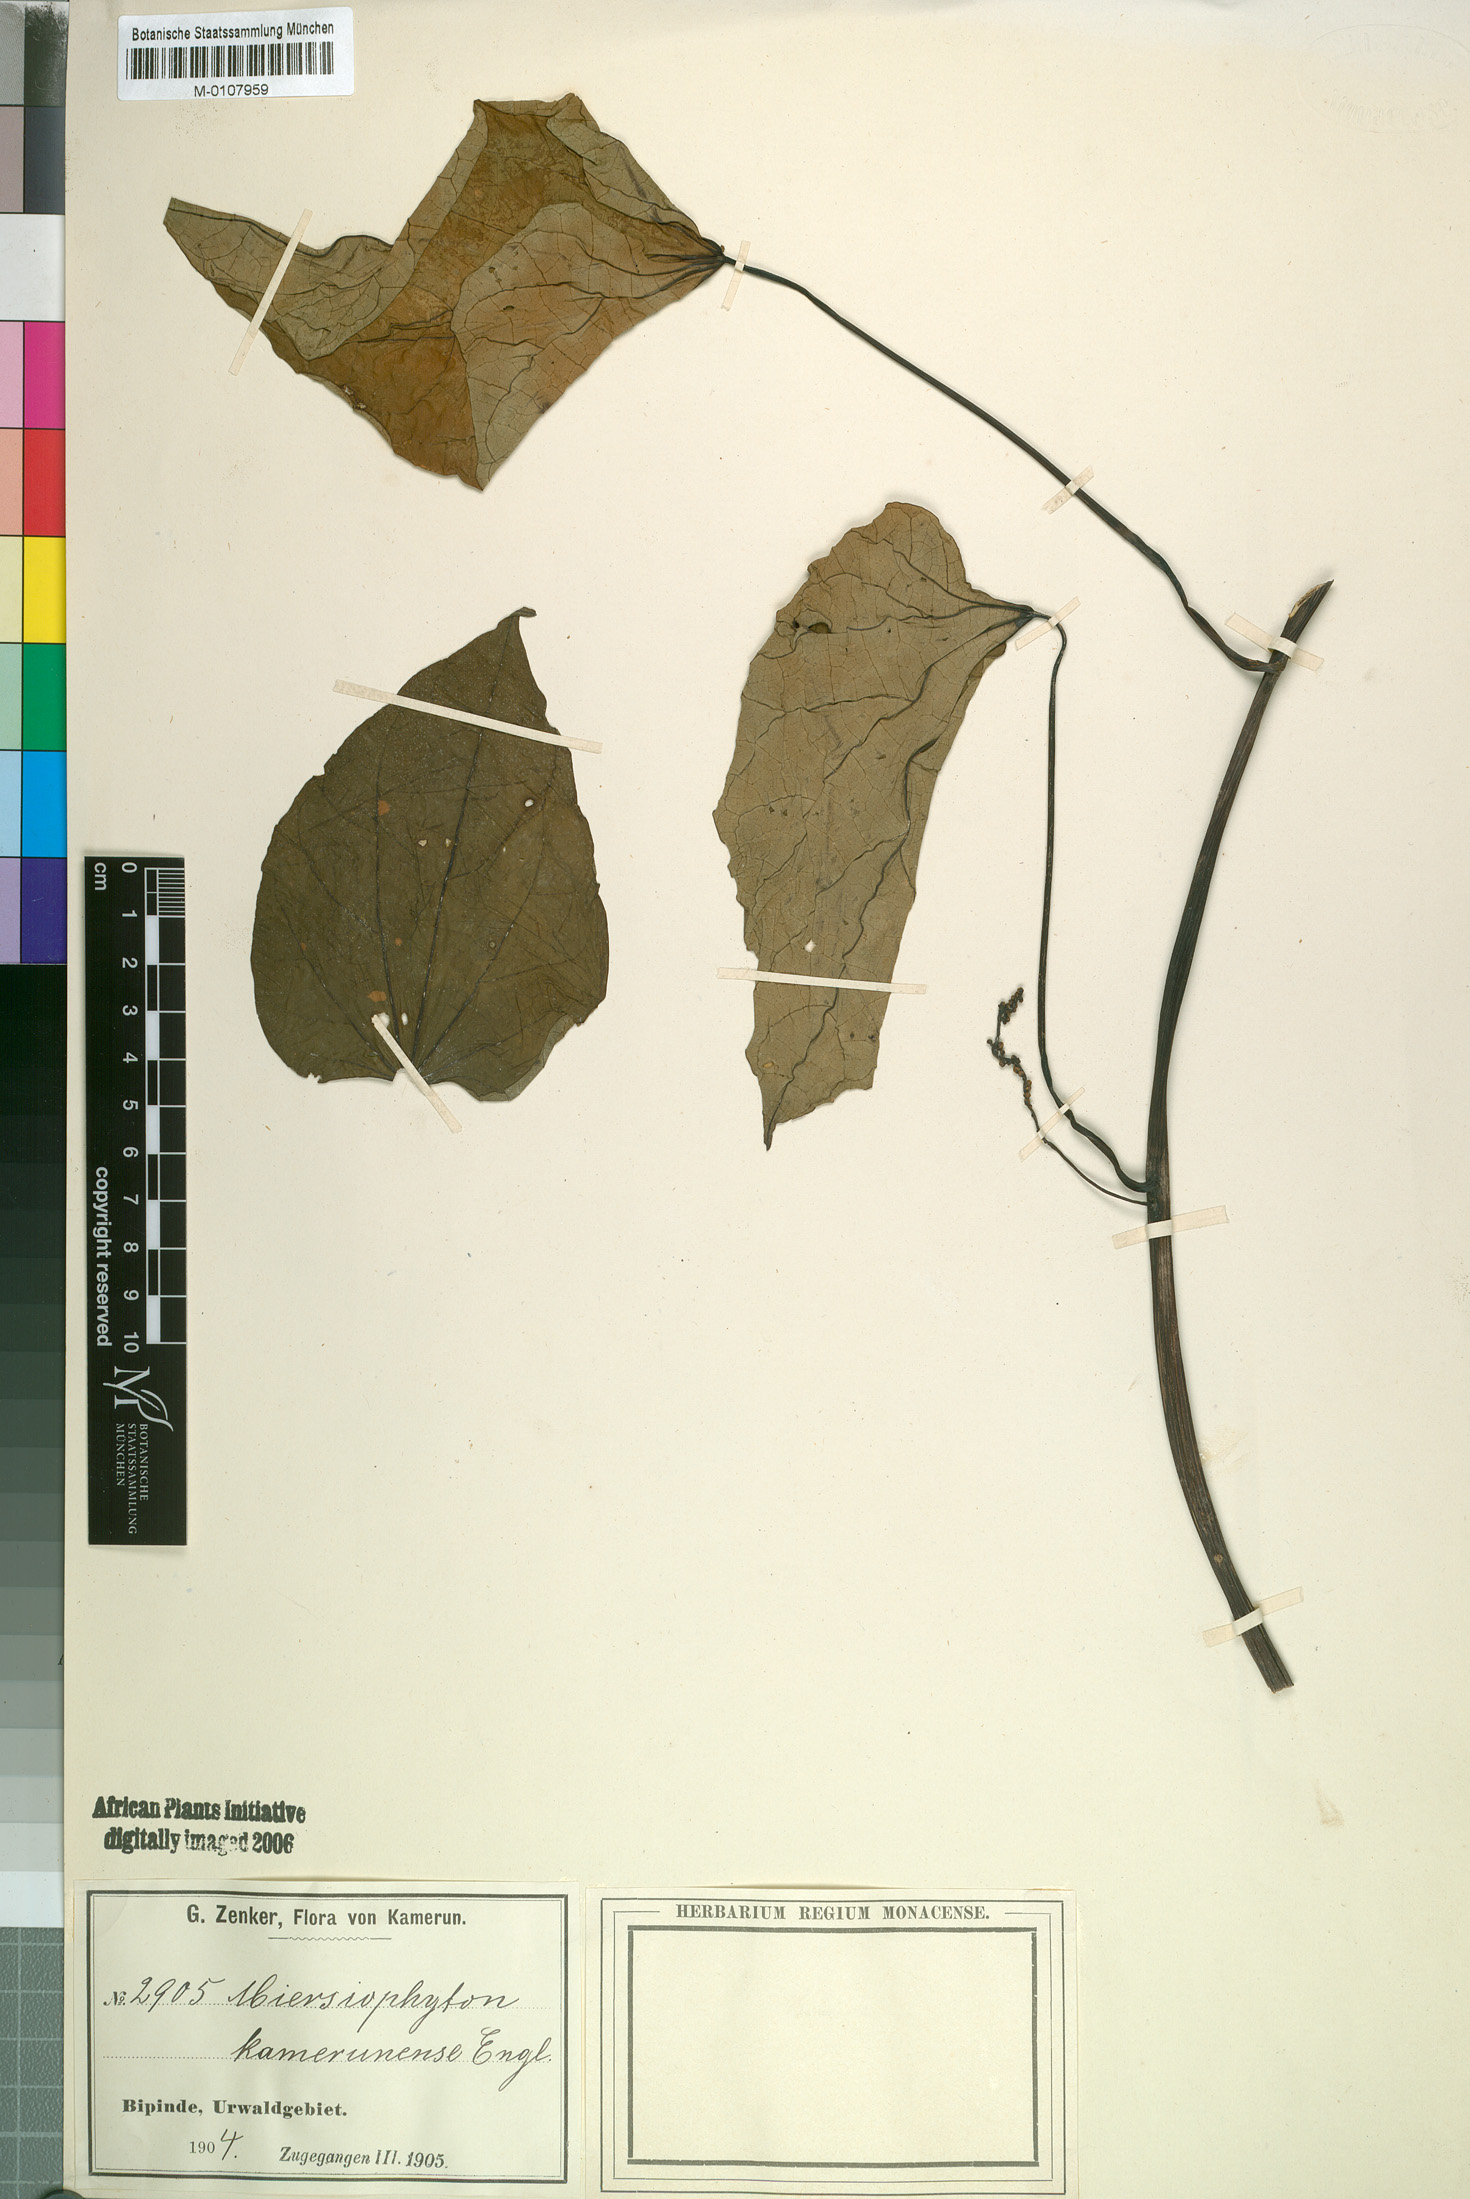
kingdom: Plantae
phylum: Tracheophyta
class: Magnoliopsida
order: Ranunculales
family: Menispermaceae
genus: Rhigiocarya
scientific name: Rhigiocarya
